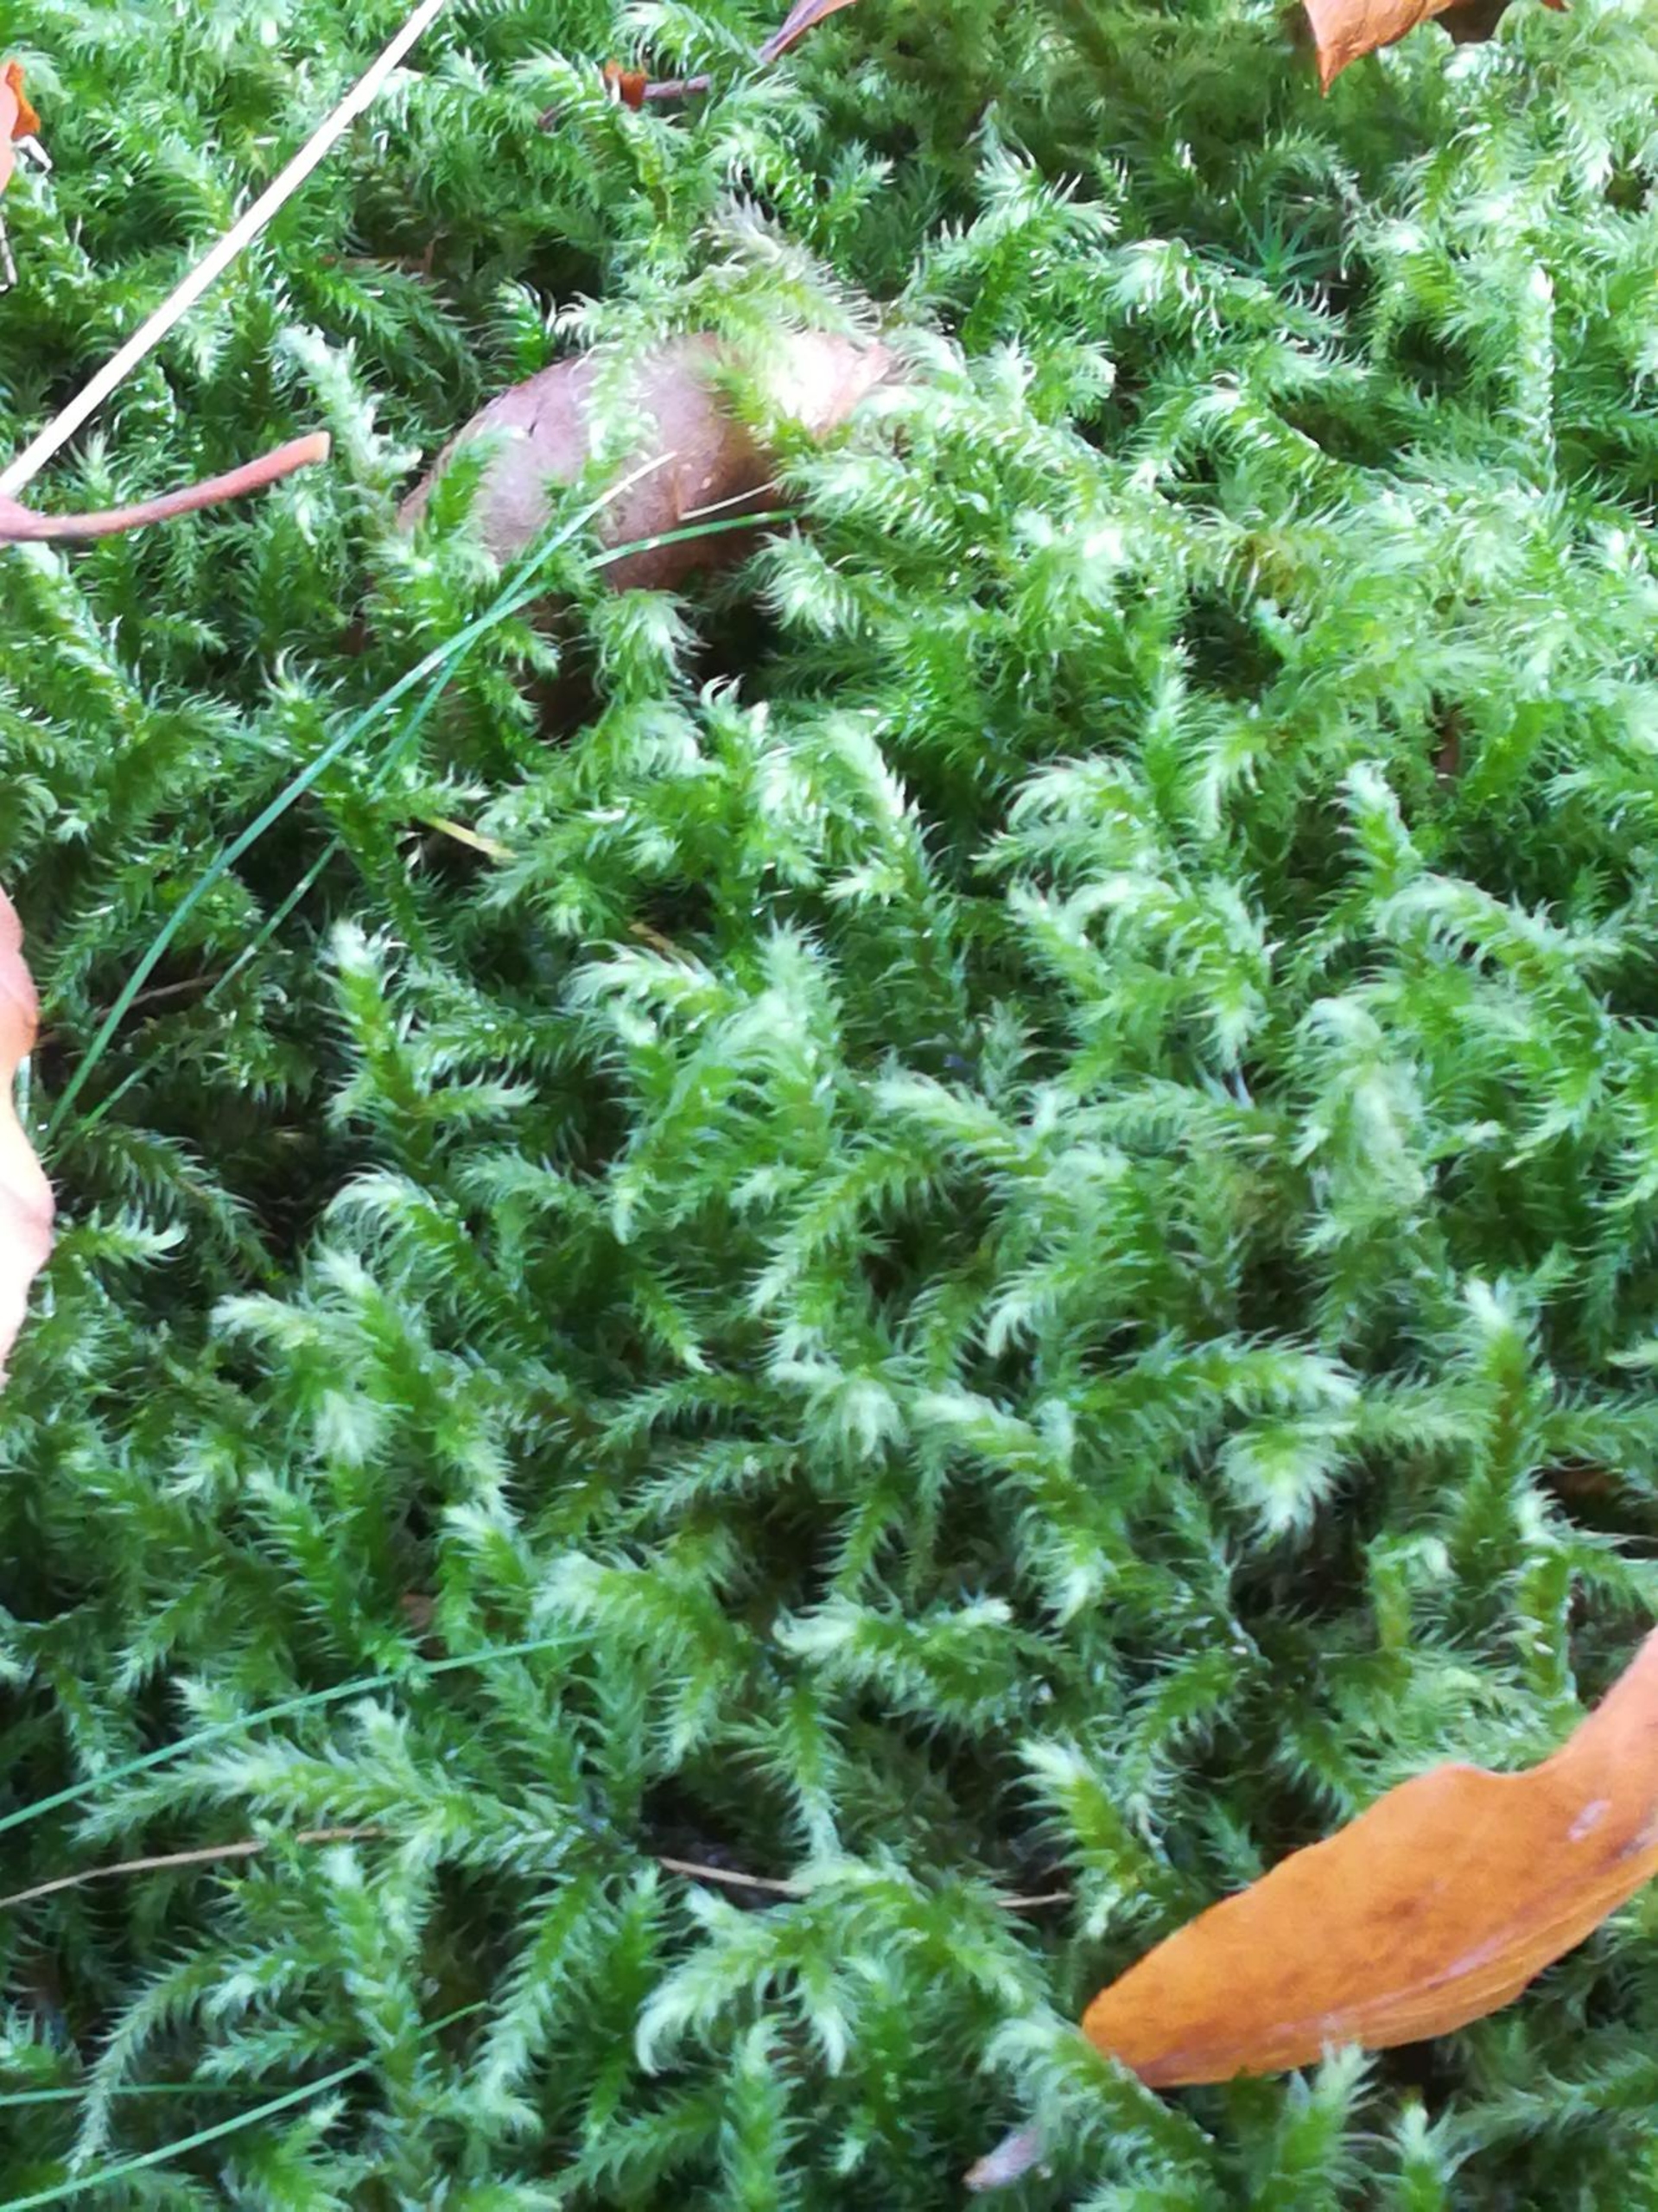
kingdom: Plantae
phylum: Bryophyta
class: Bryopsida
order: Hypnales
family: Hylocomiaceae
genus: Rhytidiadelphus
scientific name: Rhytidiadelphus loreus
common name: Ulvefod-kransemos
